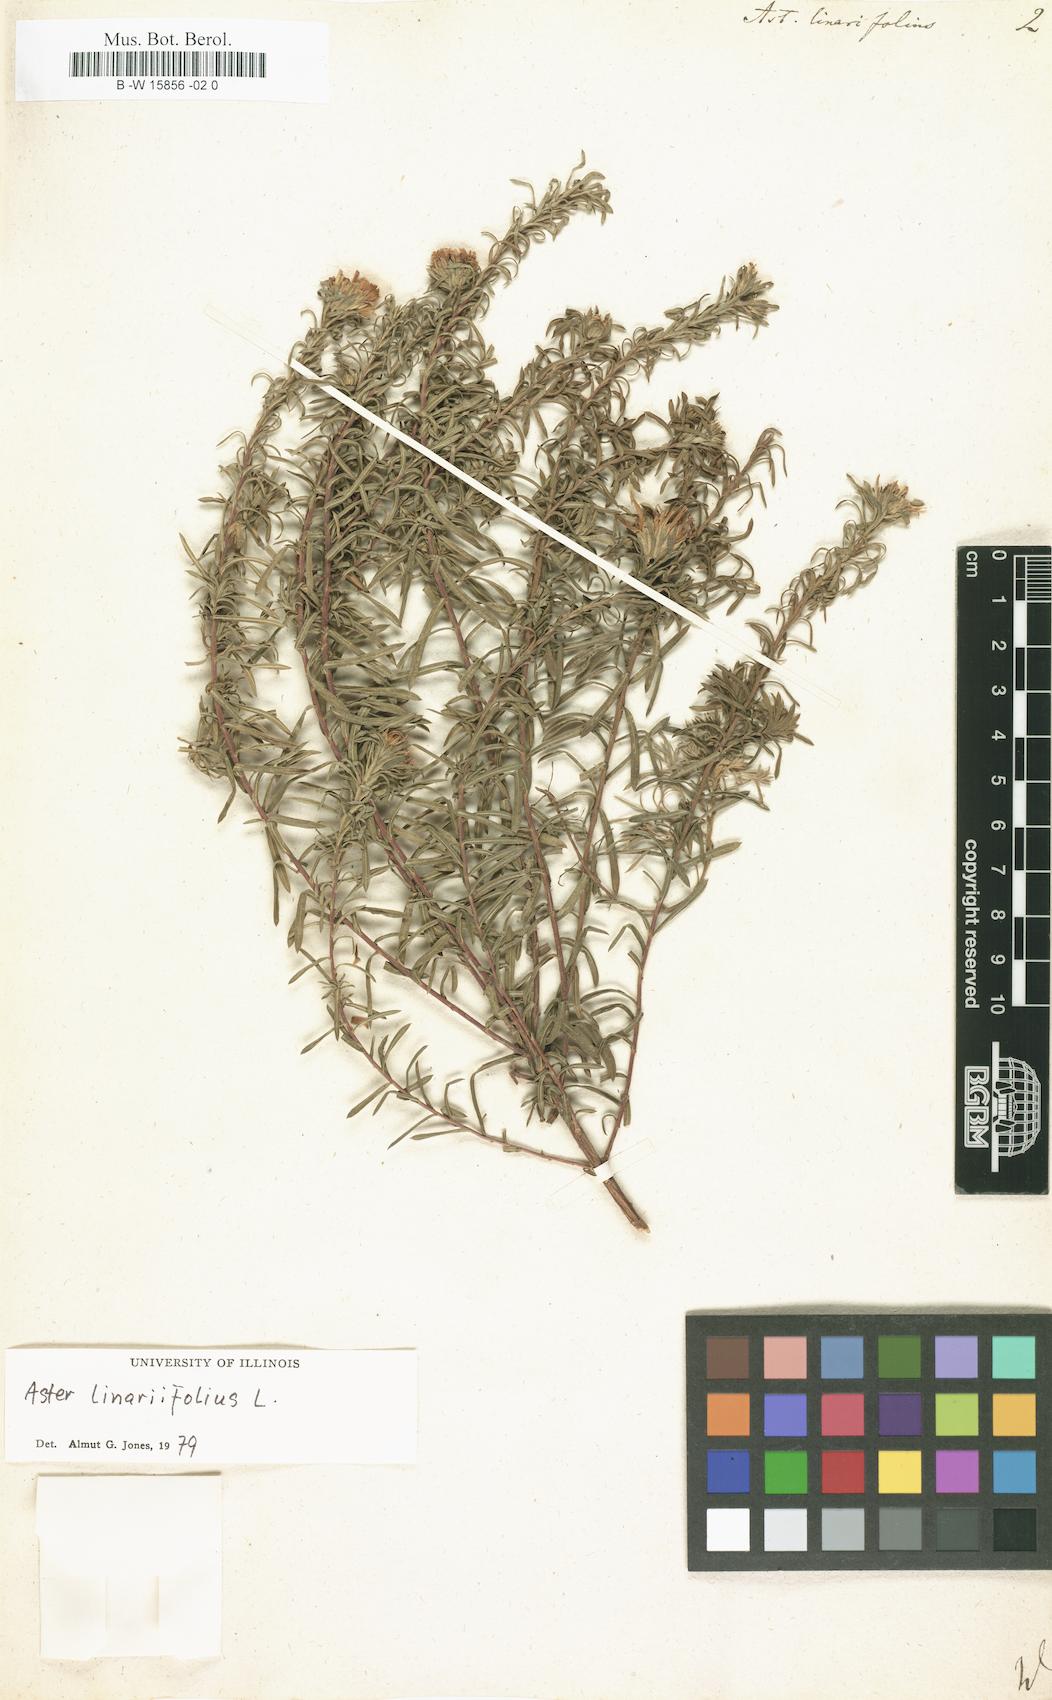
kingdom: Plantae
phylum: Tracheophyta
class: Magnoliopsida
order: Asterales
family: Asteraceae
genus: Aster
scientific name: Aster linariifolius
